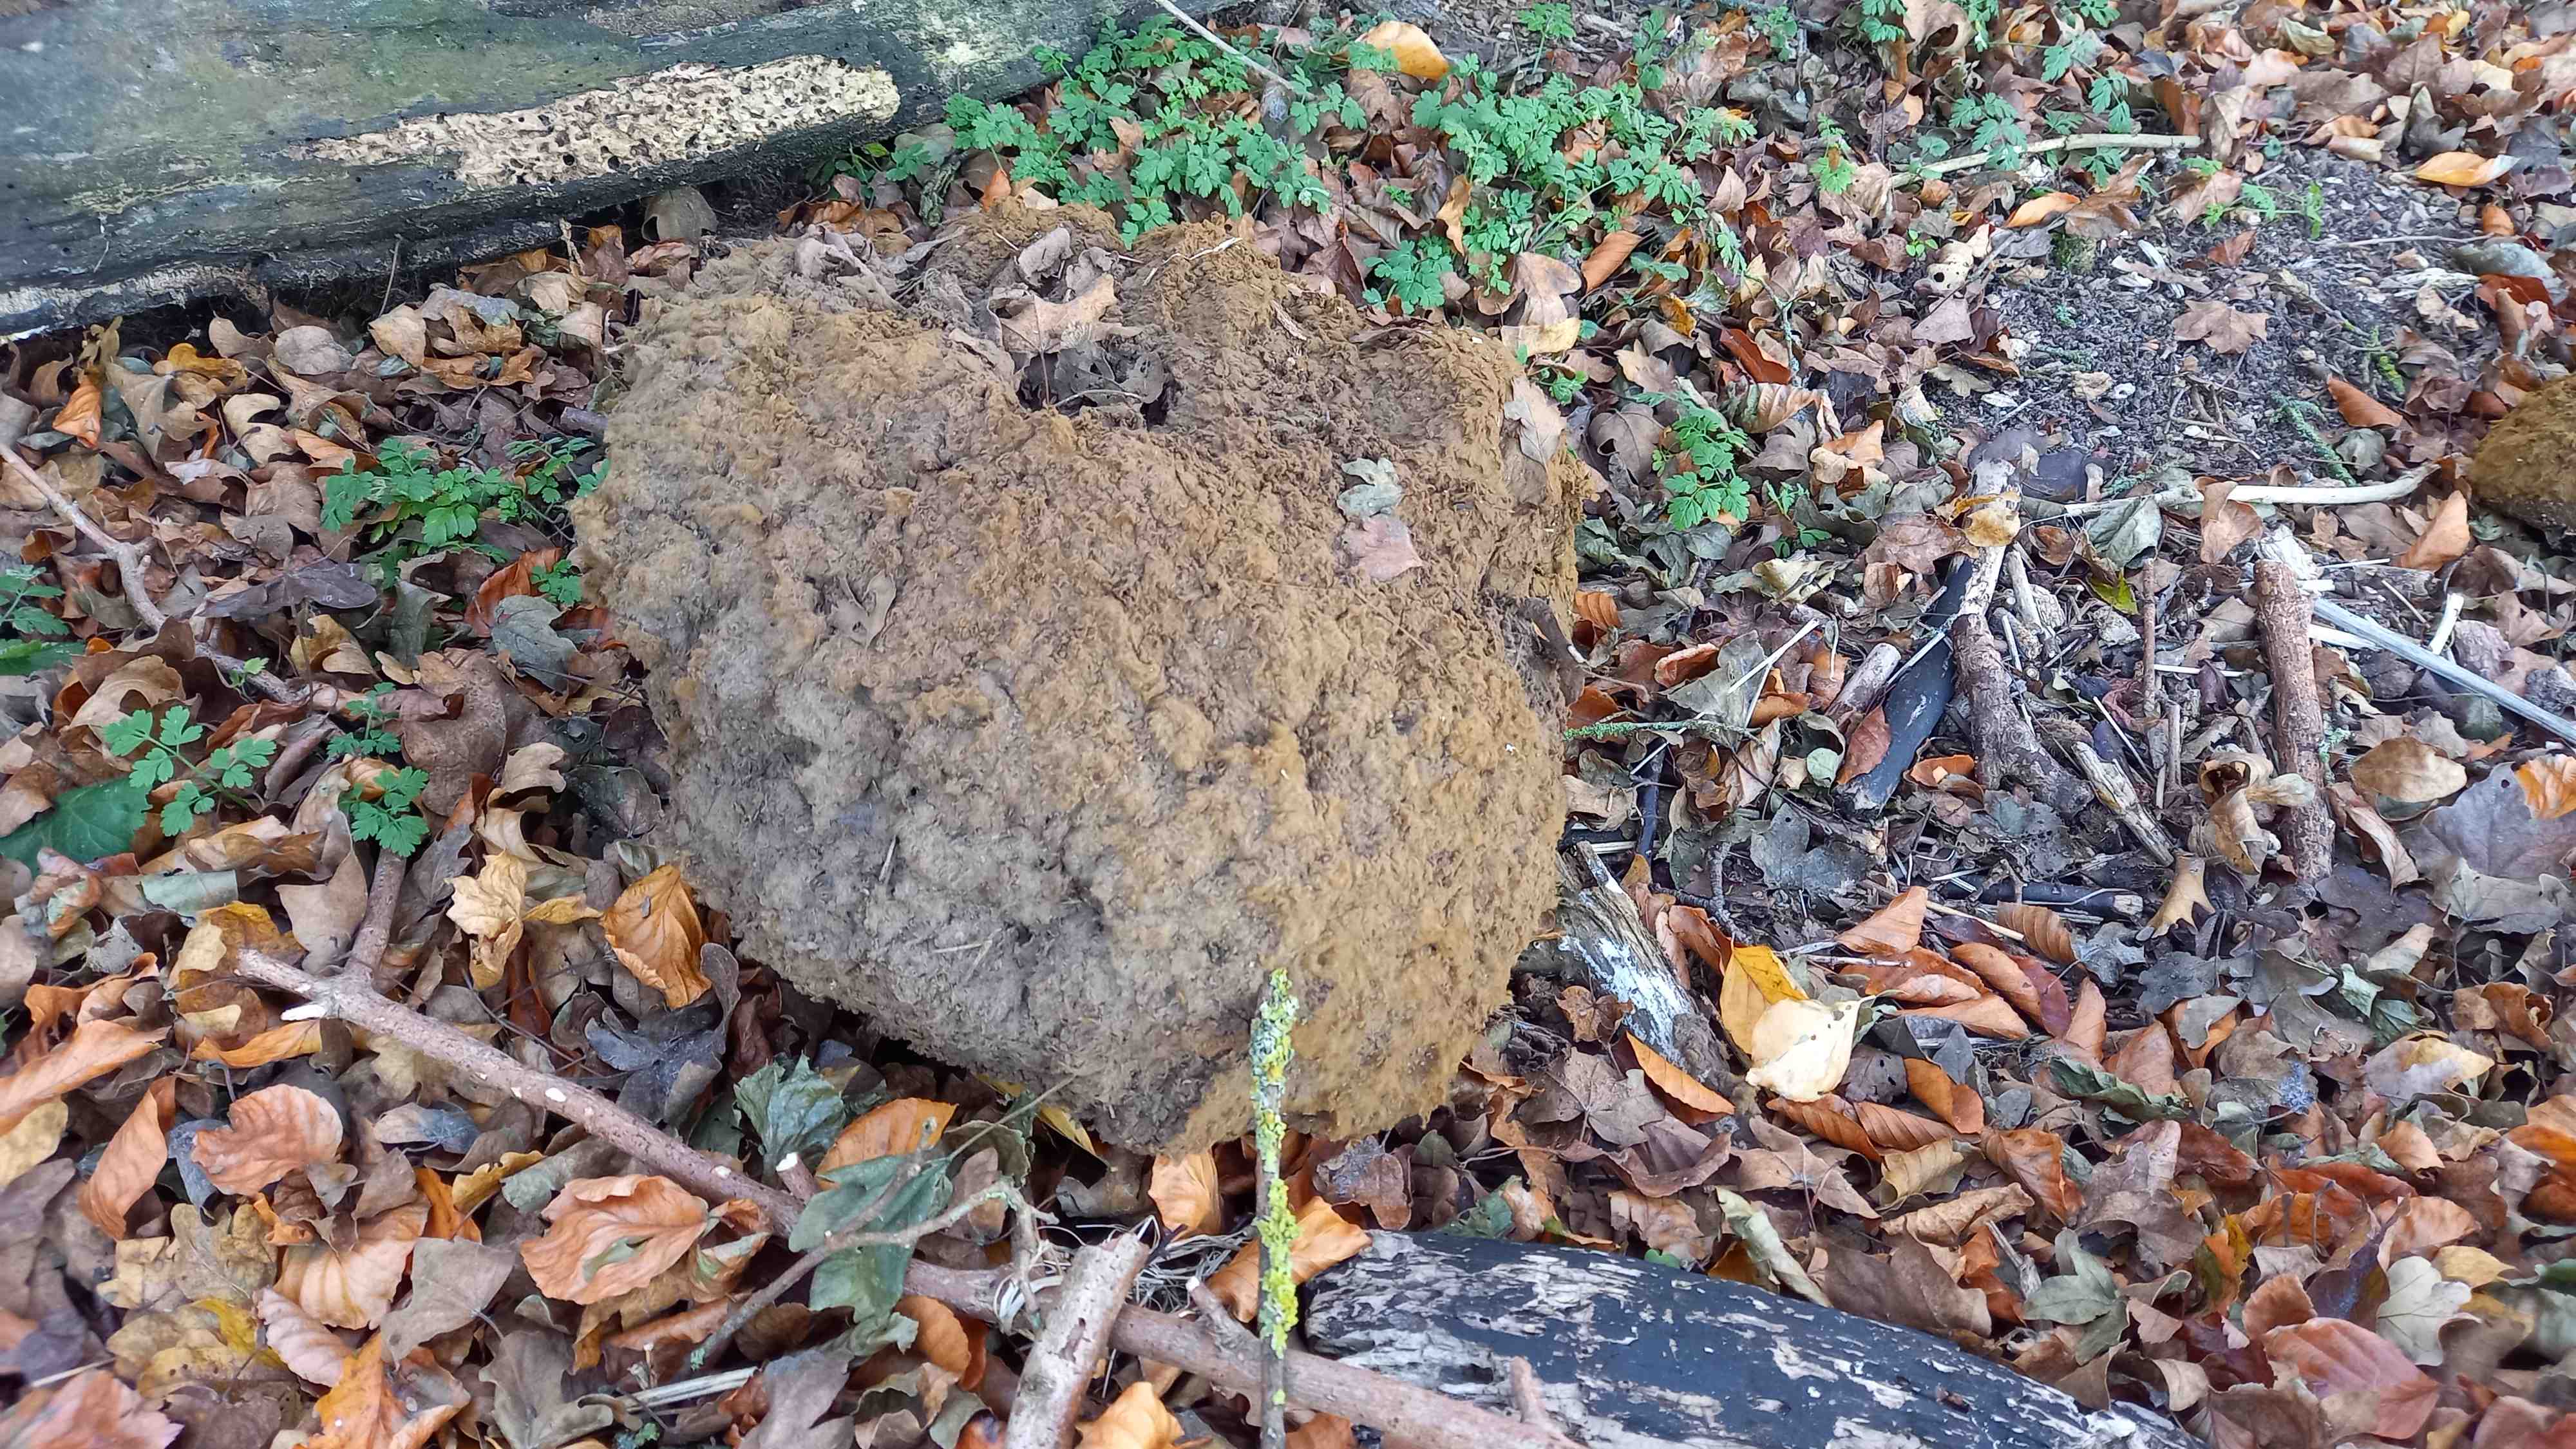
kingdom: Fungi
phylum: Basidiomycota
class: Agaricomycetes
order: Agaricales
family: Lycoperdaceae
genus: Calvatia
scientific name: Calvatia gigantea
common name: kæmpestøvbold
